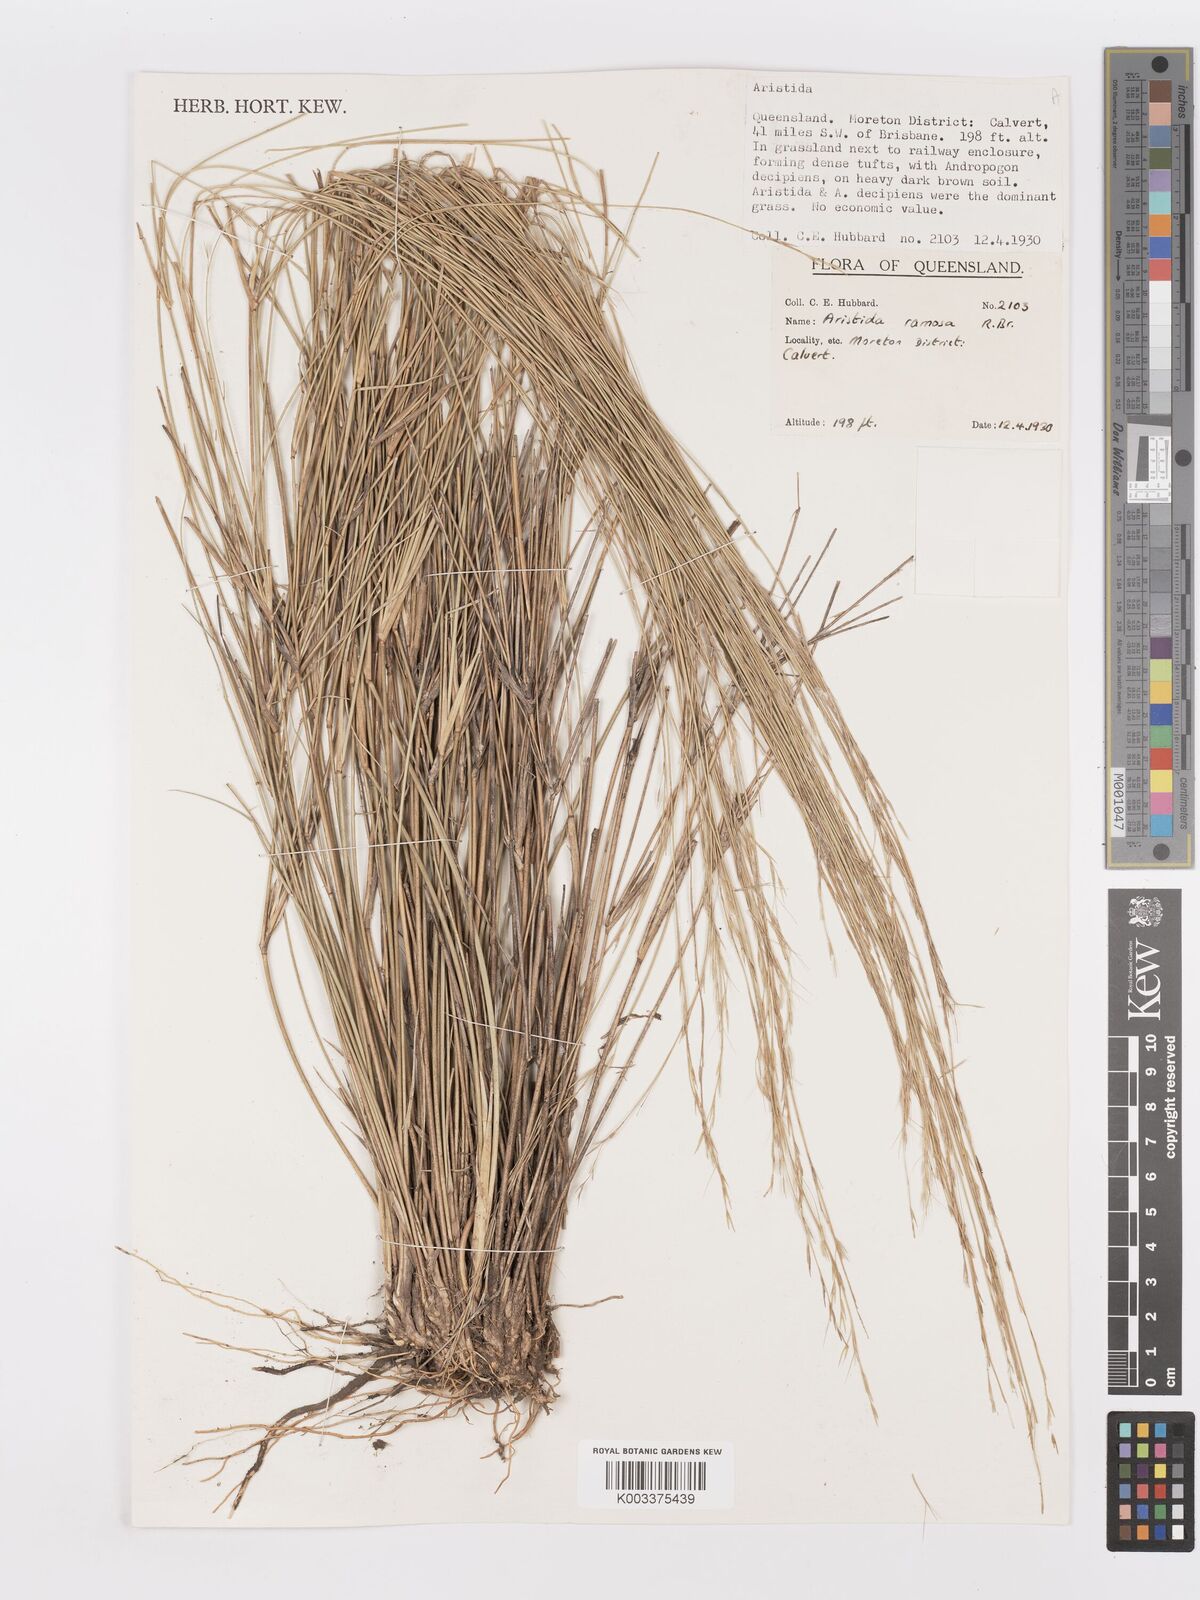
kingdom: Plantae
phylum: Tracheophyta
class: Liliopsida
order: Poales
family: Poaceae
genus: Aristida
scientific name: Aristida ramosa
